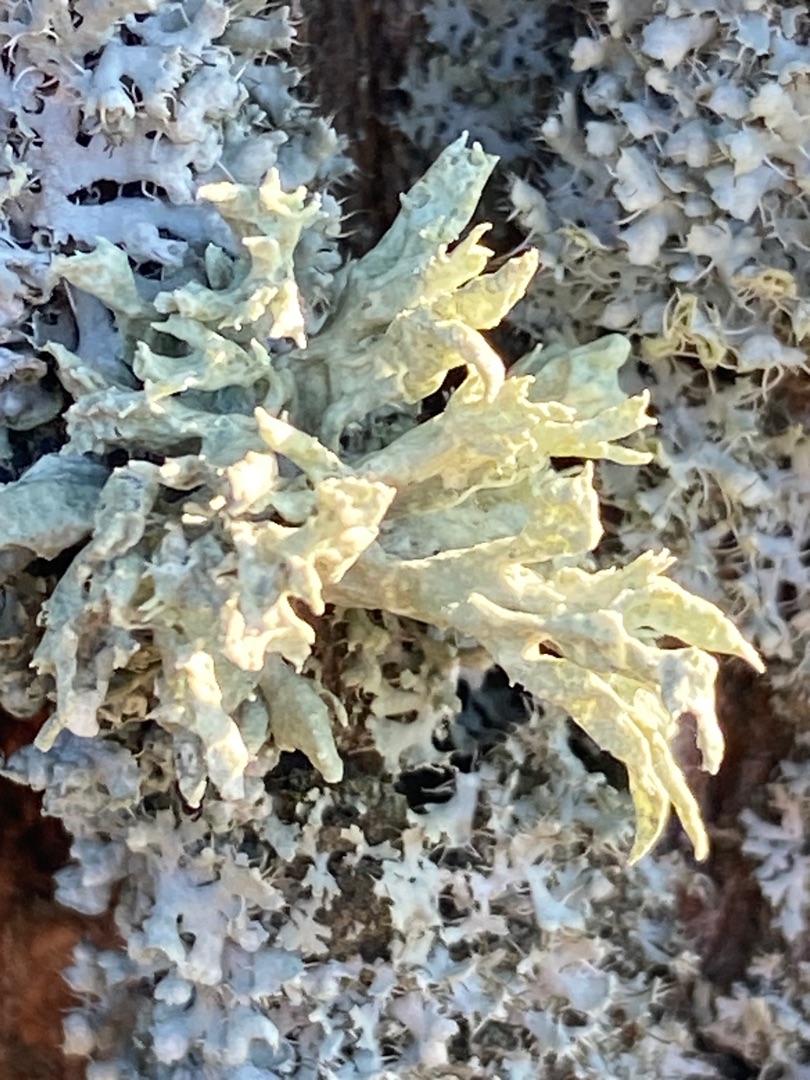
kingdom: Fungi
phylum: Ascomycota
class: Lecanoromycetes
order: Lecanorales
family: Ramalinaceae
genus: Ramalina
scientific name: Ramalina fastigiata
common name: Tue-grenlav
